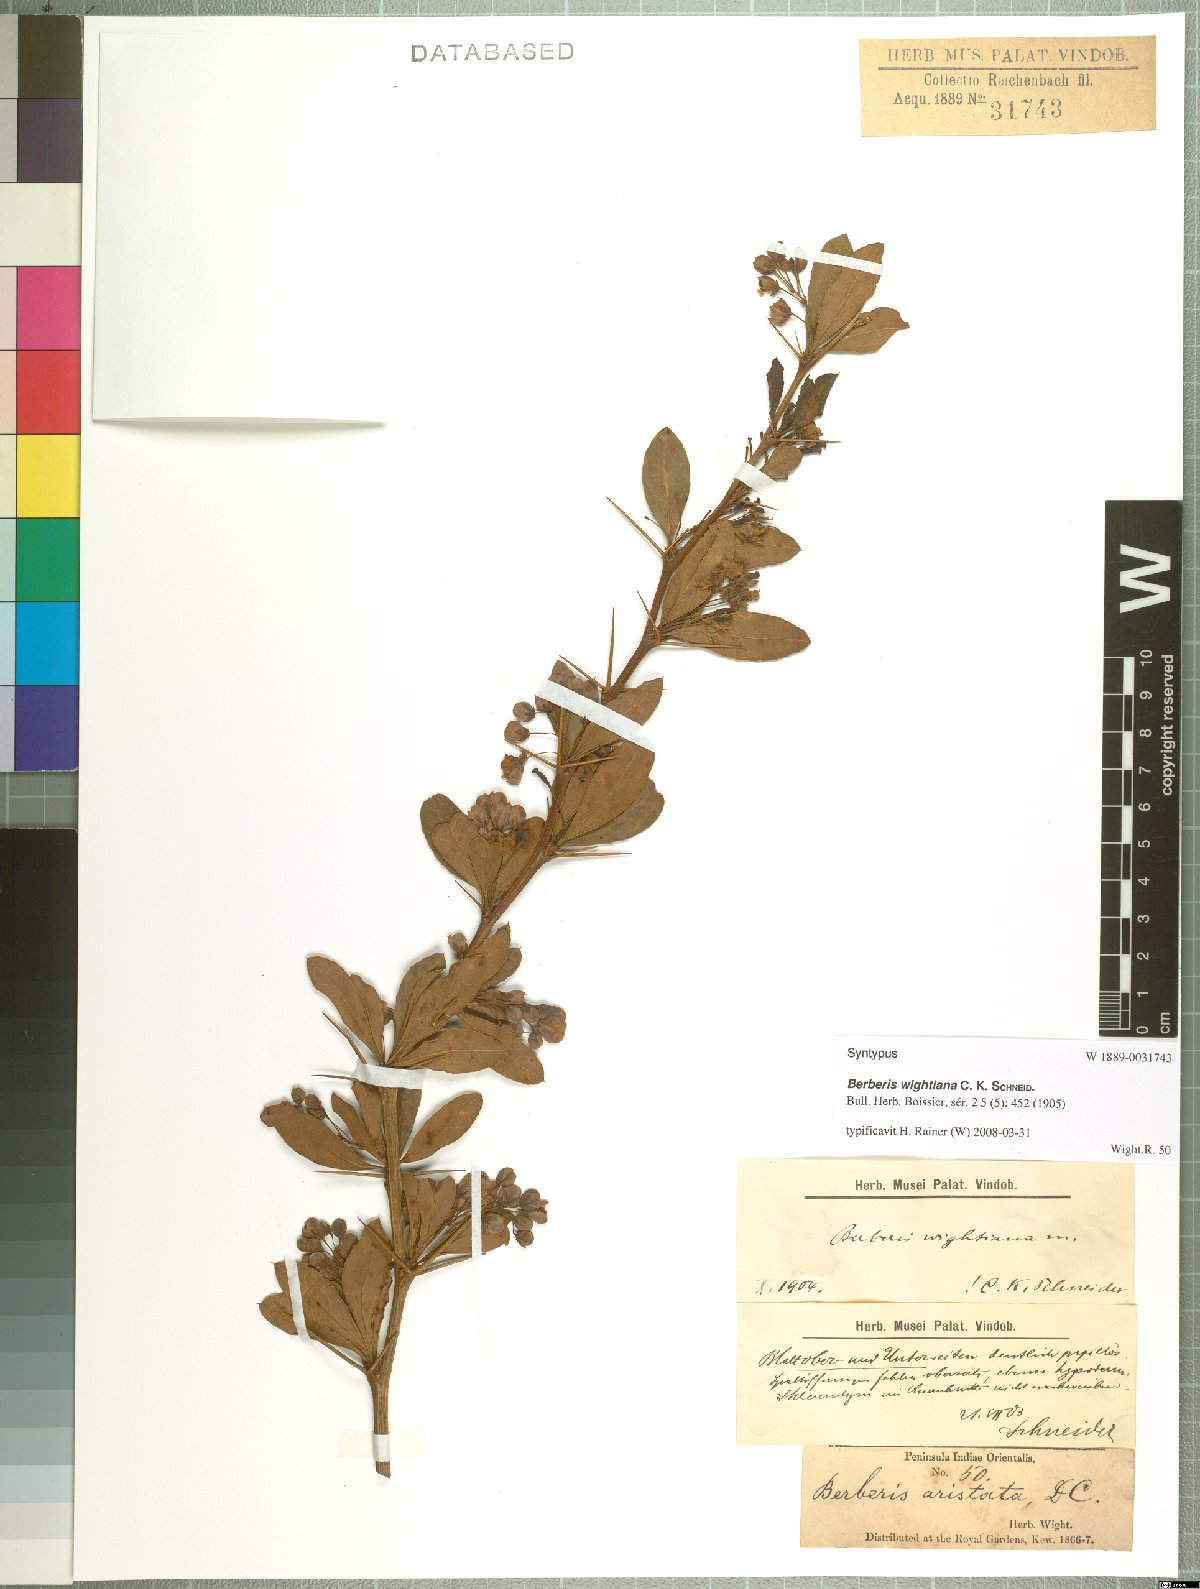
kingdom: Plantae
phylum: Tracheophyta
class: Magnoliopsida
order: Ranunculales
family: Berberidaceae
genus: Berberis
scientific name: Berberis wightiana
